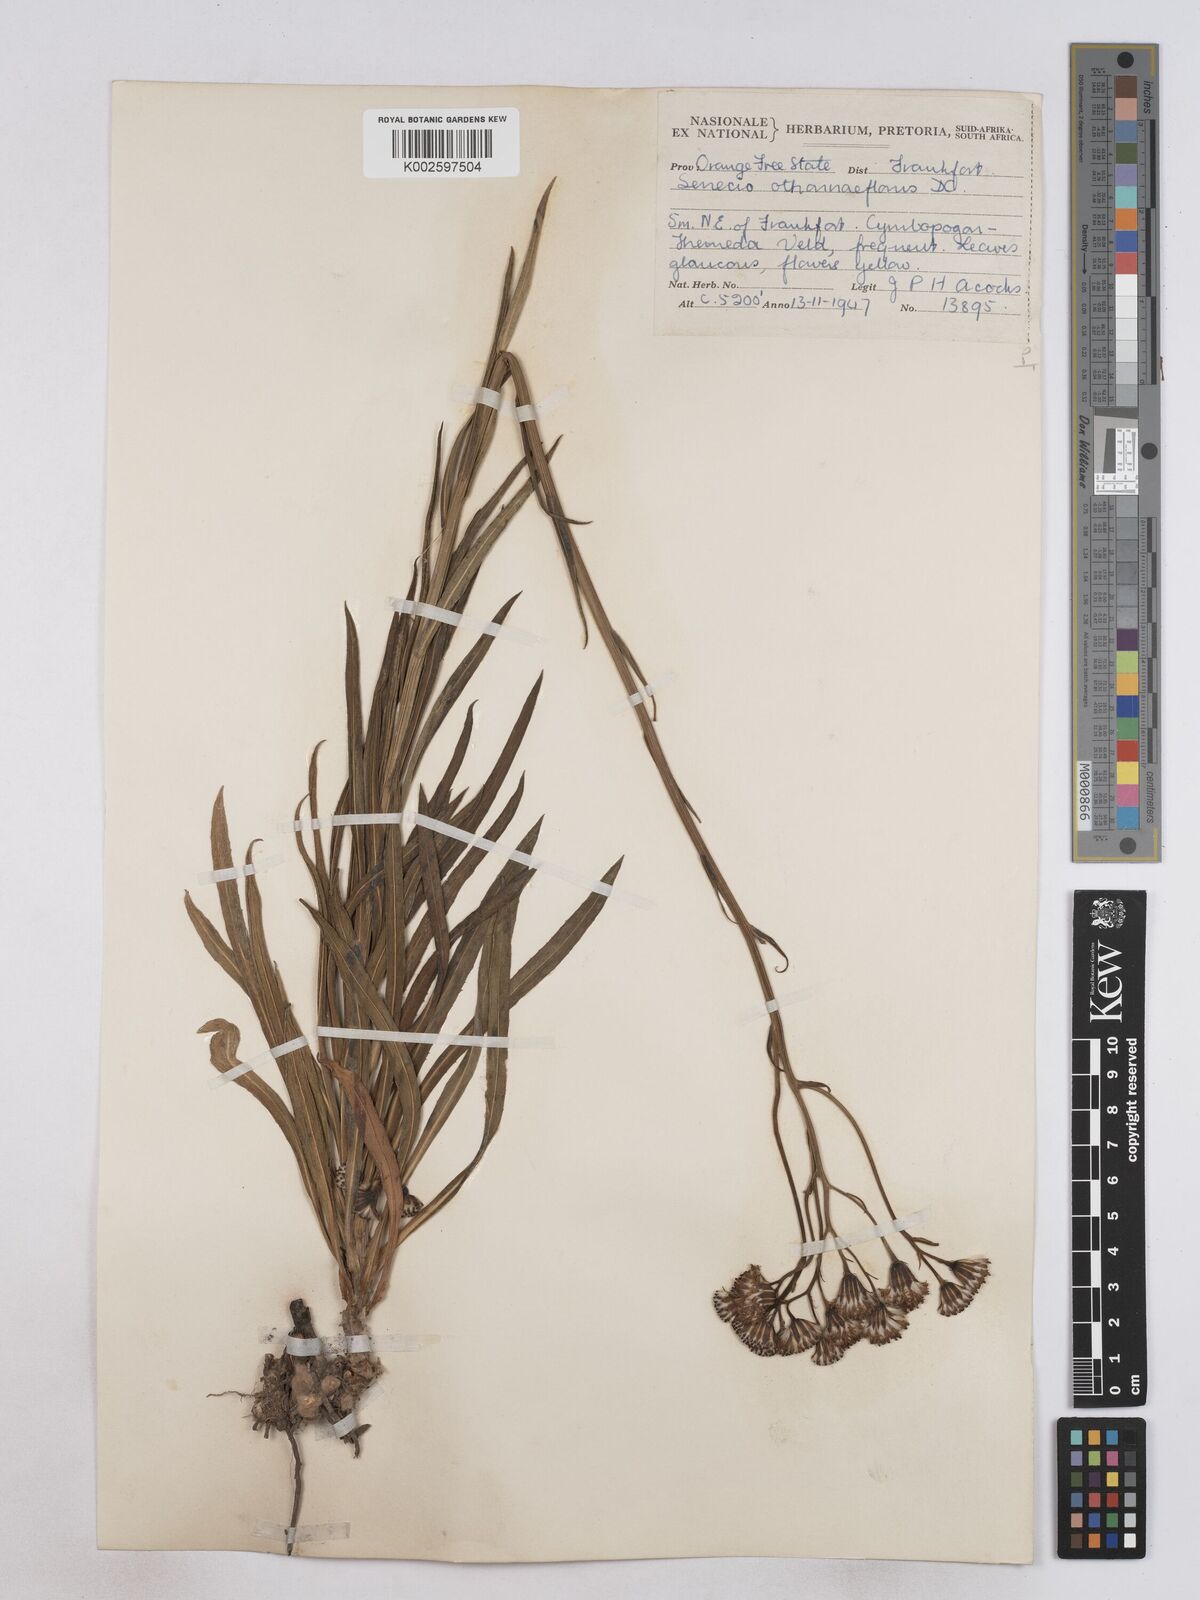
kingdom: Plantae
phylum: Tracheophyta
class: Magnoliopsida
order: Asterales
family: Asteraceae
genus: Senecio
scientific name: Senecio othonniflorus
